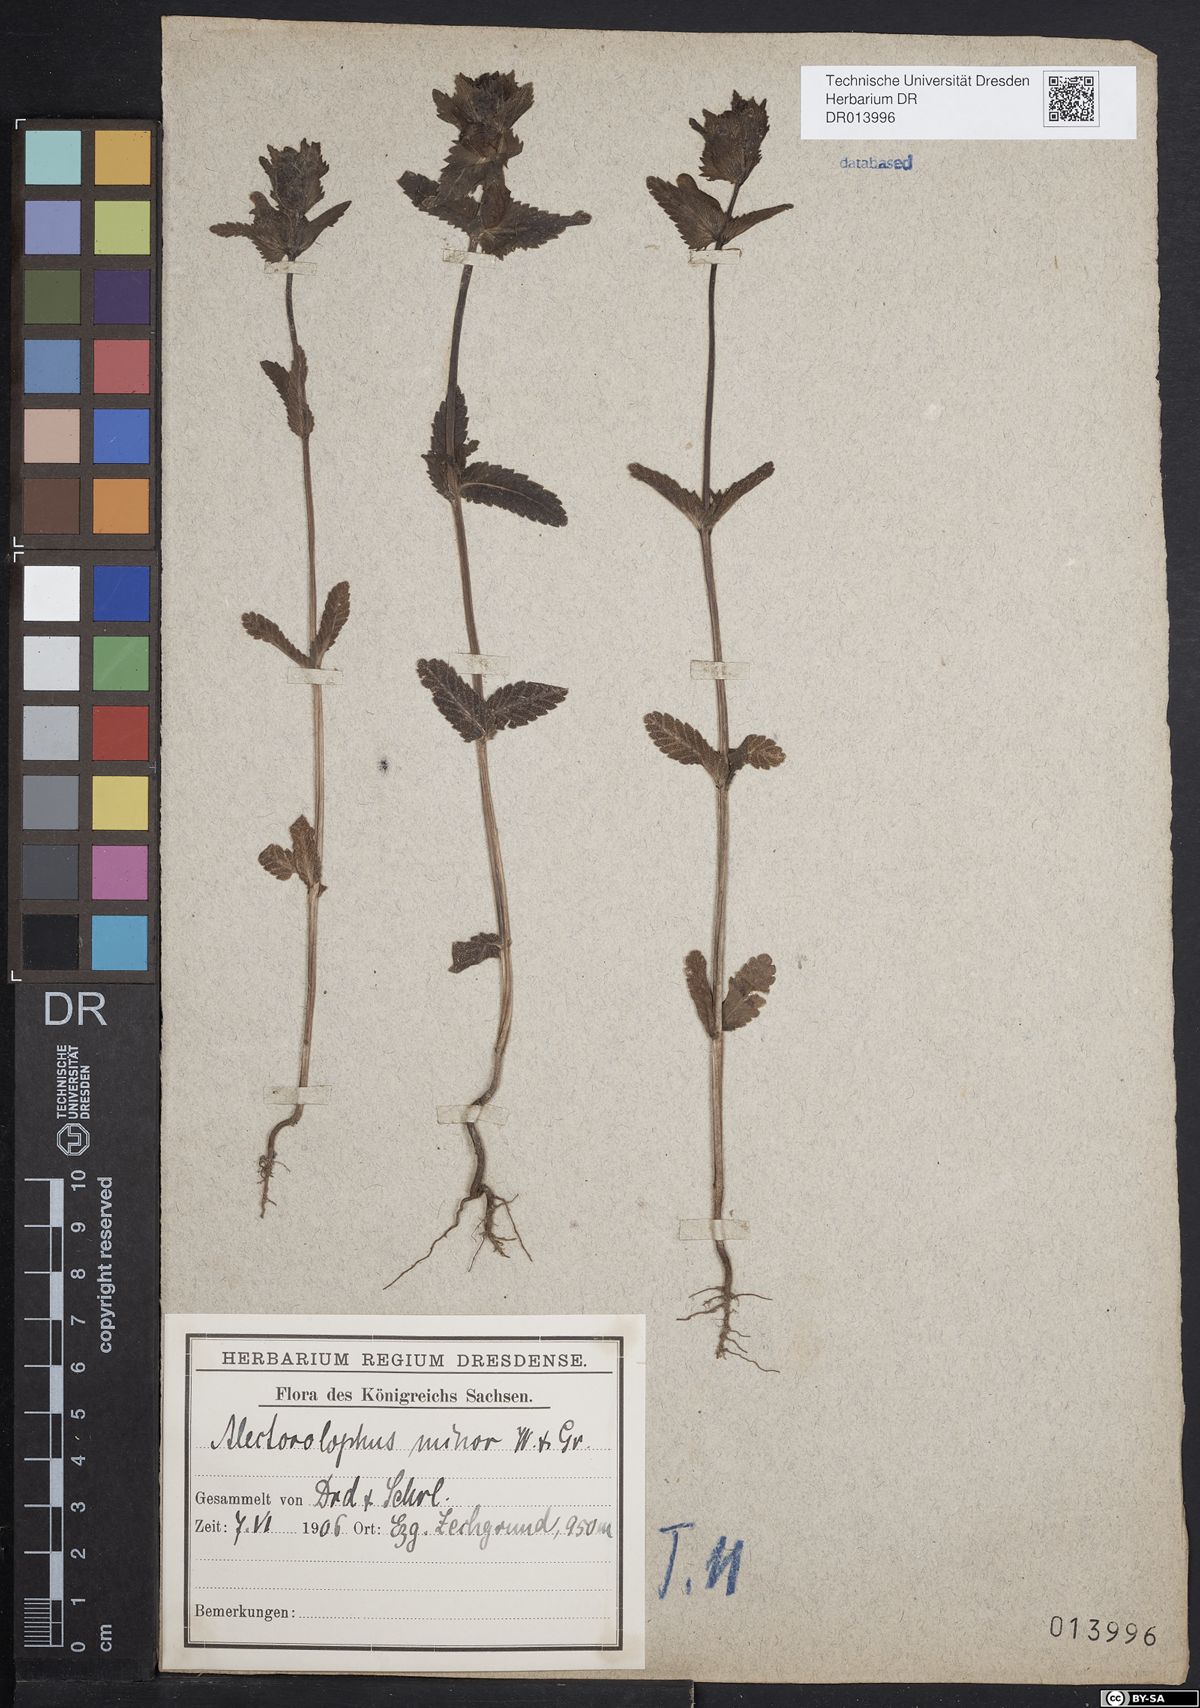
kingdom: Plantae
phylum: Tracheophyta
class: Magnoliopsida
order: Lamiales
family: Orobanchaceae
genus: Rhinanthus
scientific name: Rhinanthus minor
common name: Yellow-rattle
